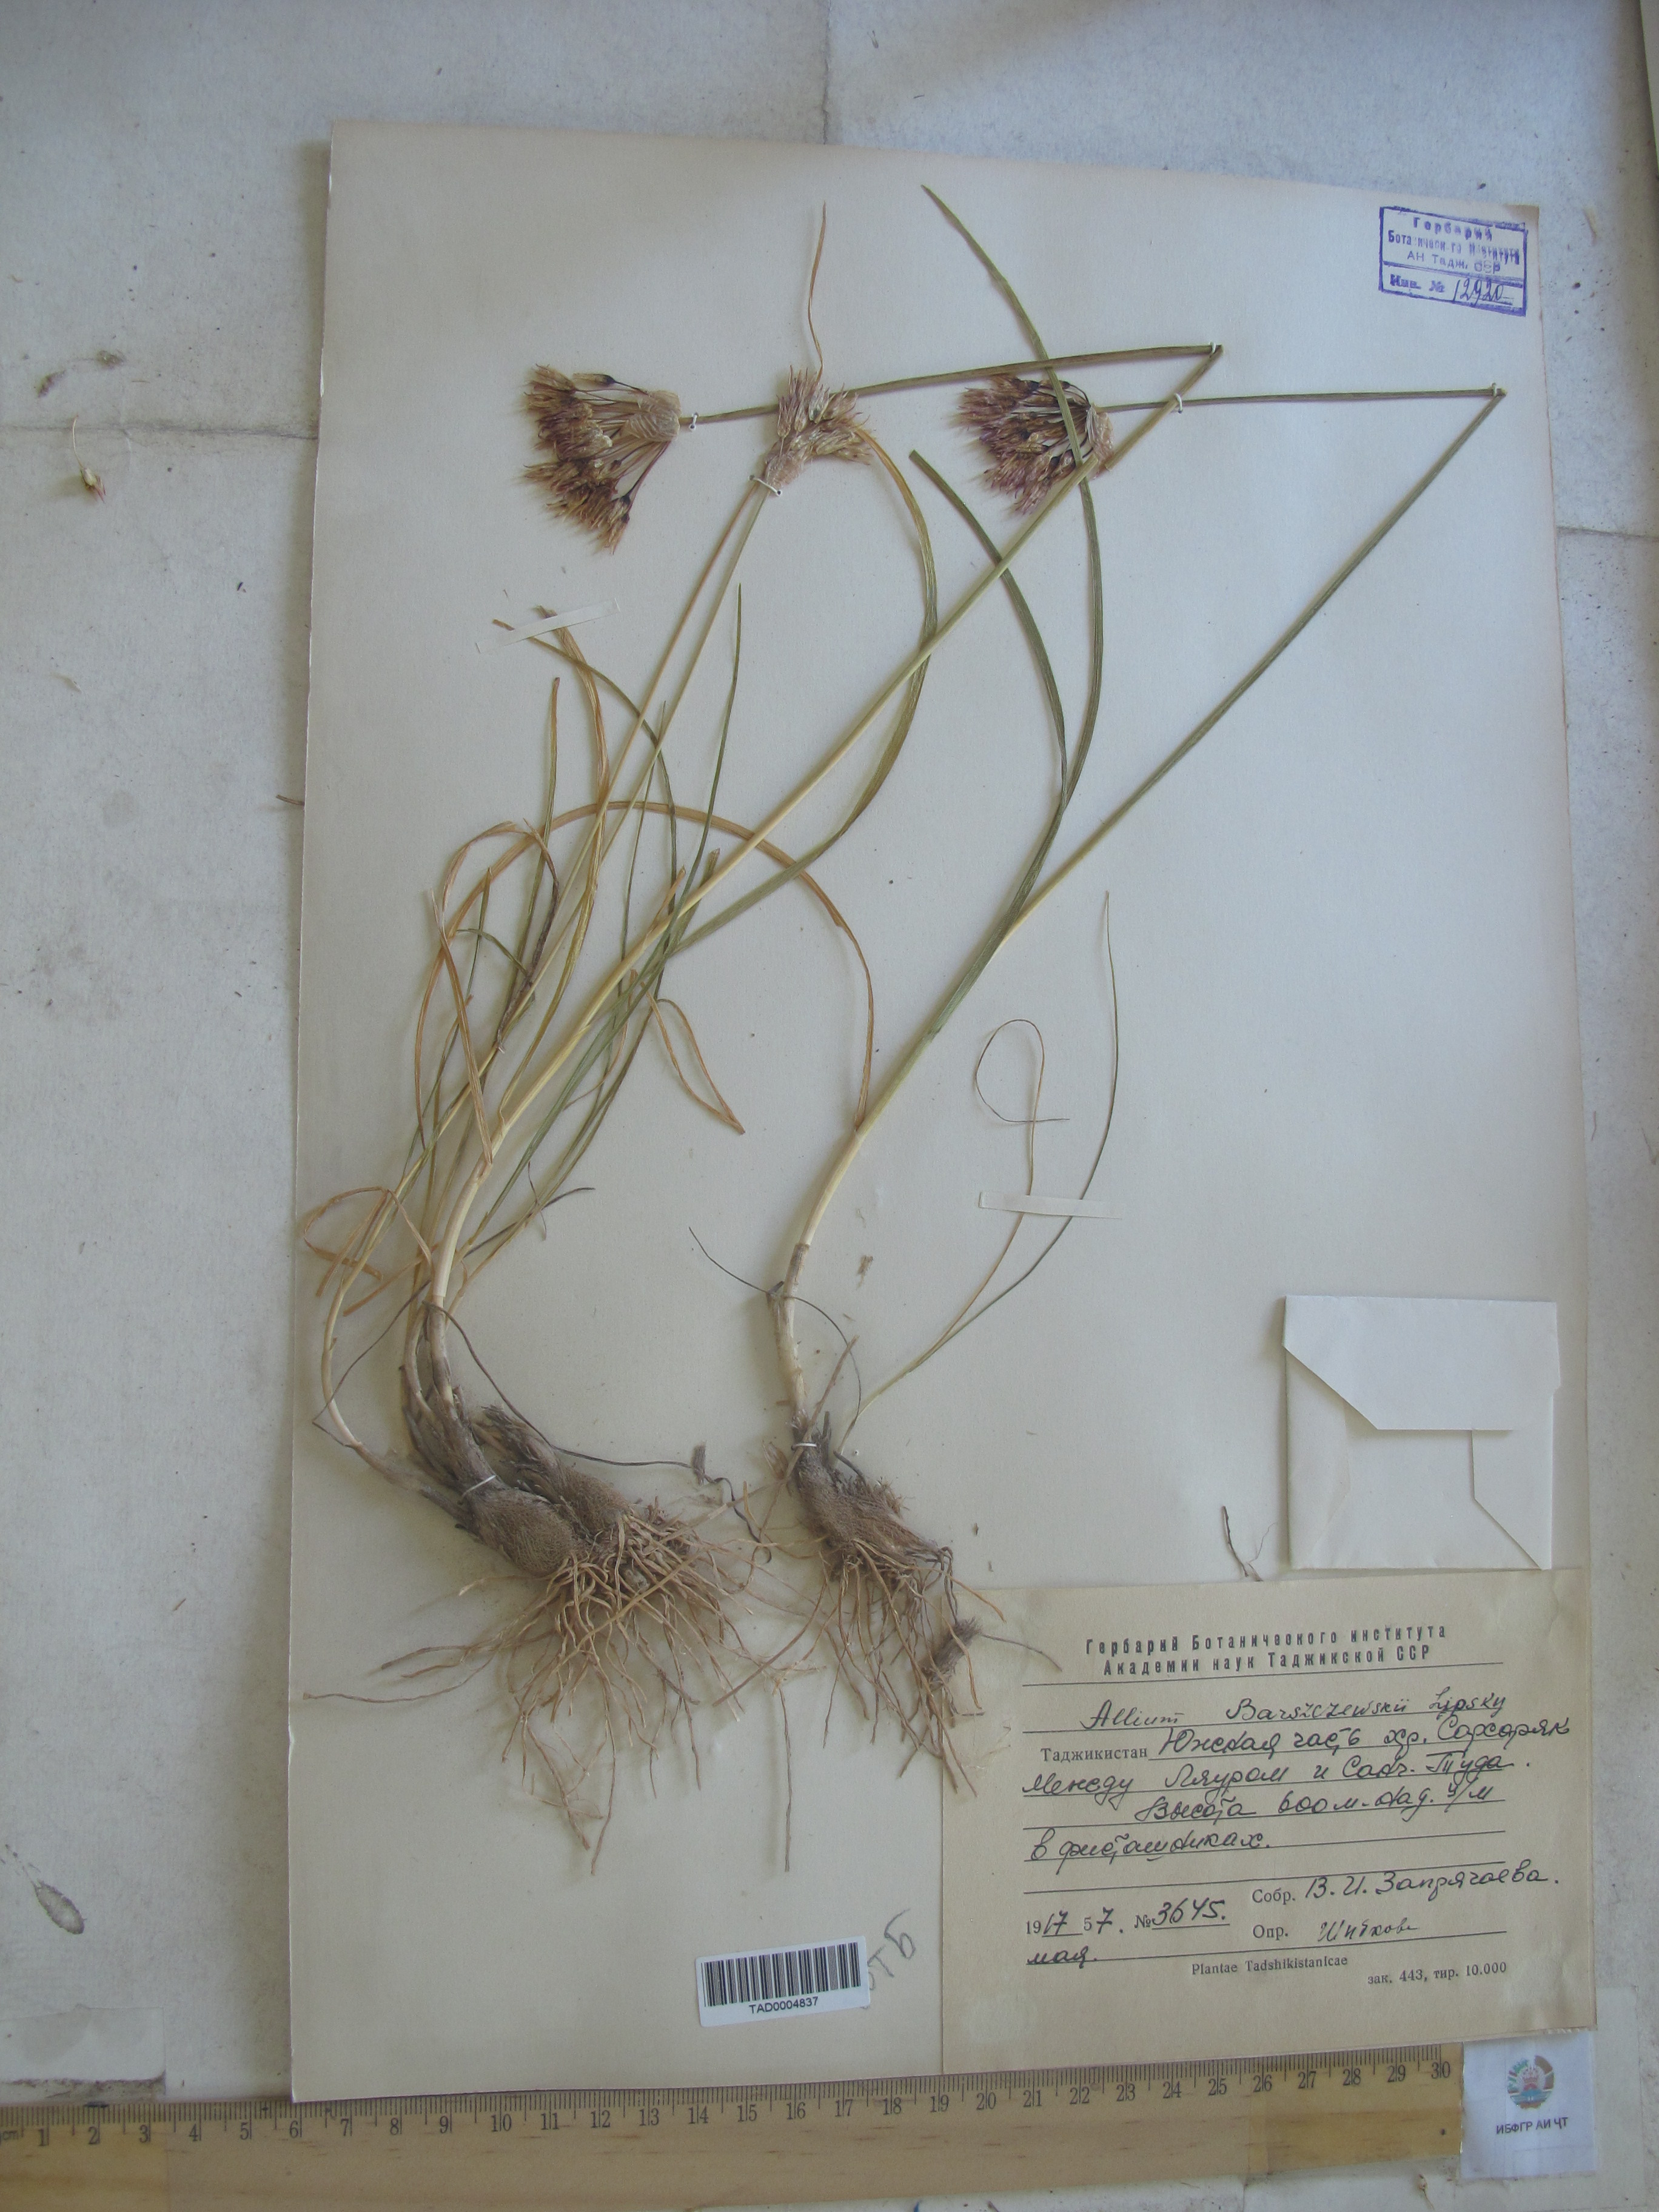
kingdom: Plantae
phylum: Tracheophyta
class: Liliopsida
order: Asparagales
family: Amaryllidaceae
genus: Allium
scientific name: Allium barsczewskii
